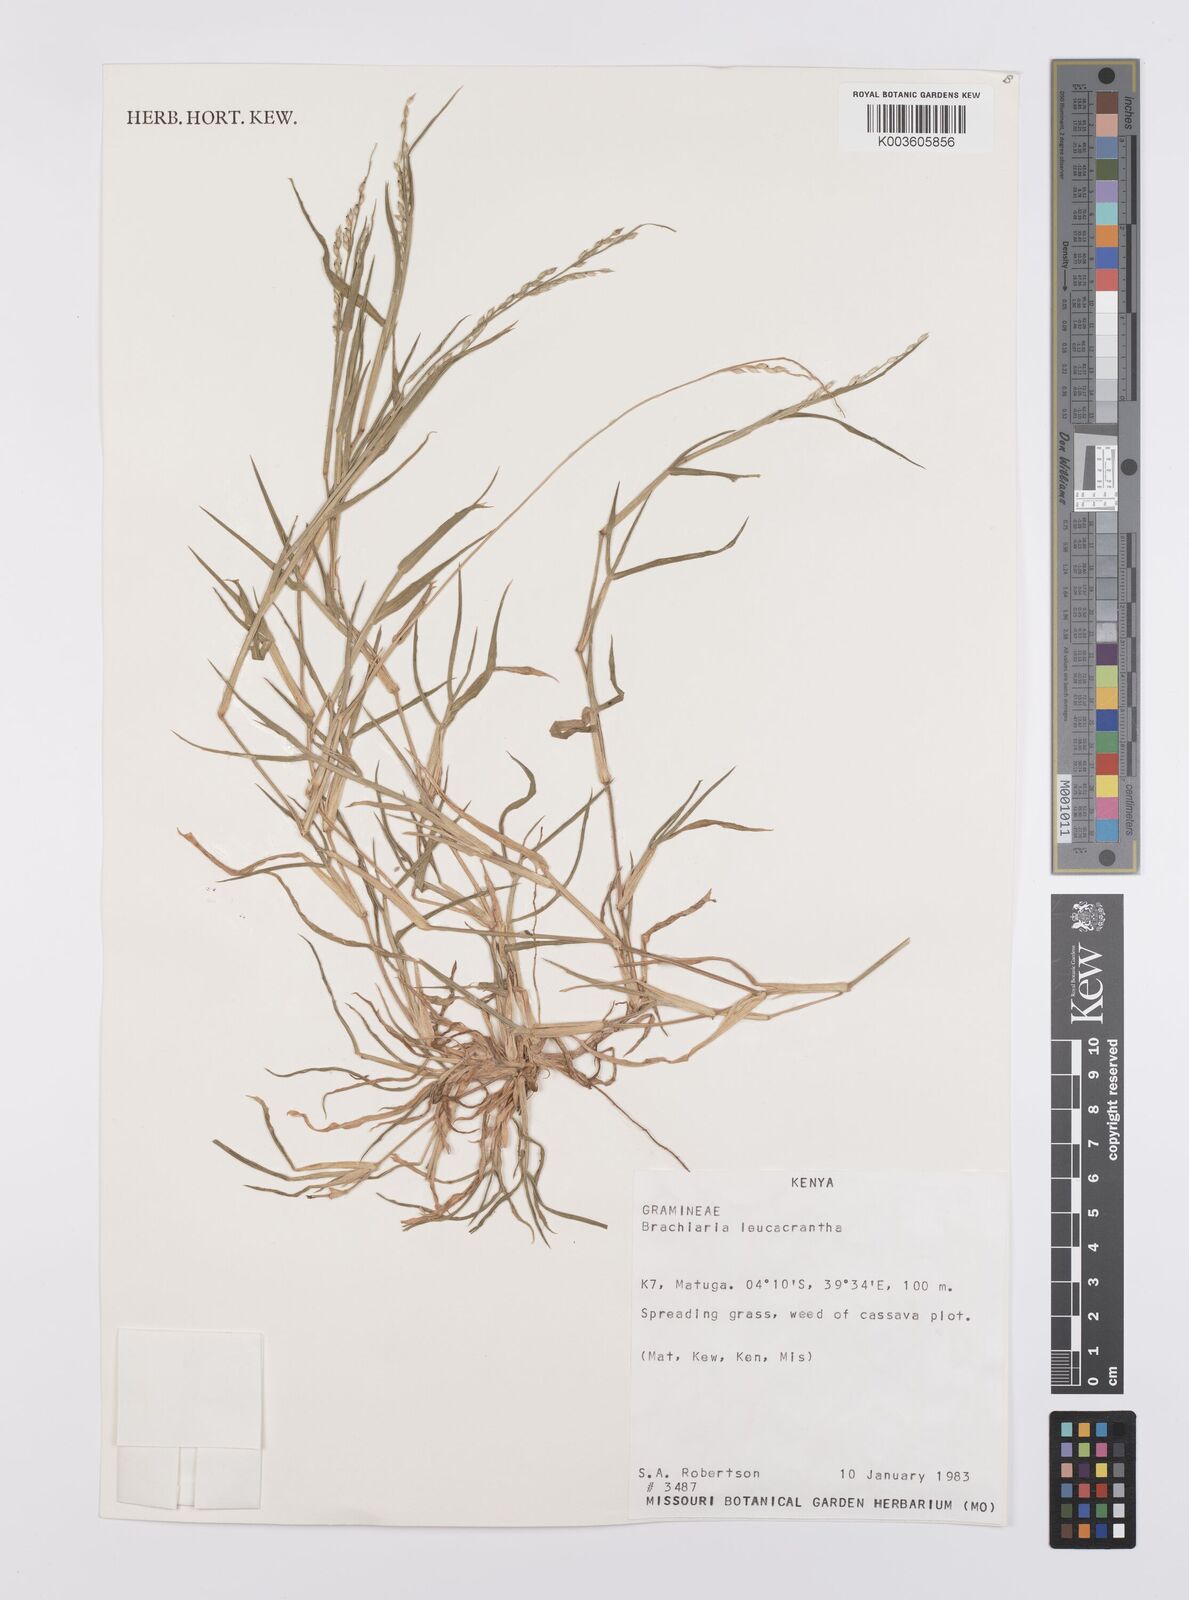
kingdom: Plantae
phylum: Tracheophyta
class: Liliopsida
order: Poales
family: Poaceae
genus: Urochloa
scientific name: Urochloa xantholeuca
